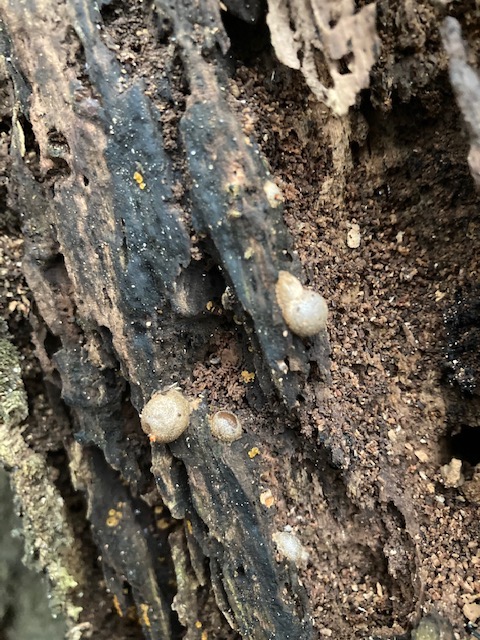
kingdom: Protozoa
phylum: Mycetozoa
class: Myxomycetes
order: Cribrariales
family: Tubiferaceae
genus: Lycogala
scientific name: Lycogala epidendrum
